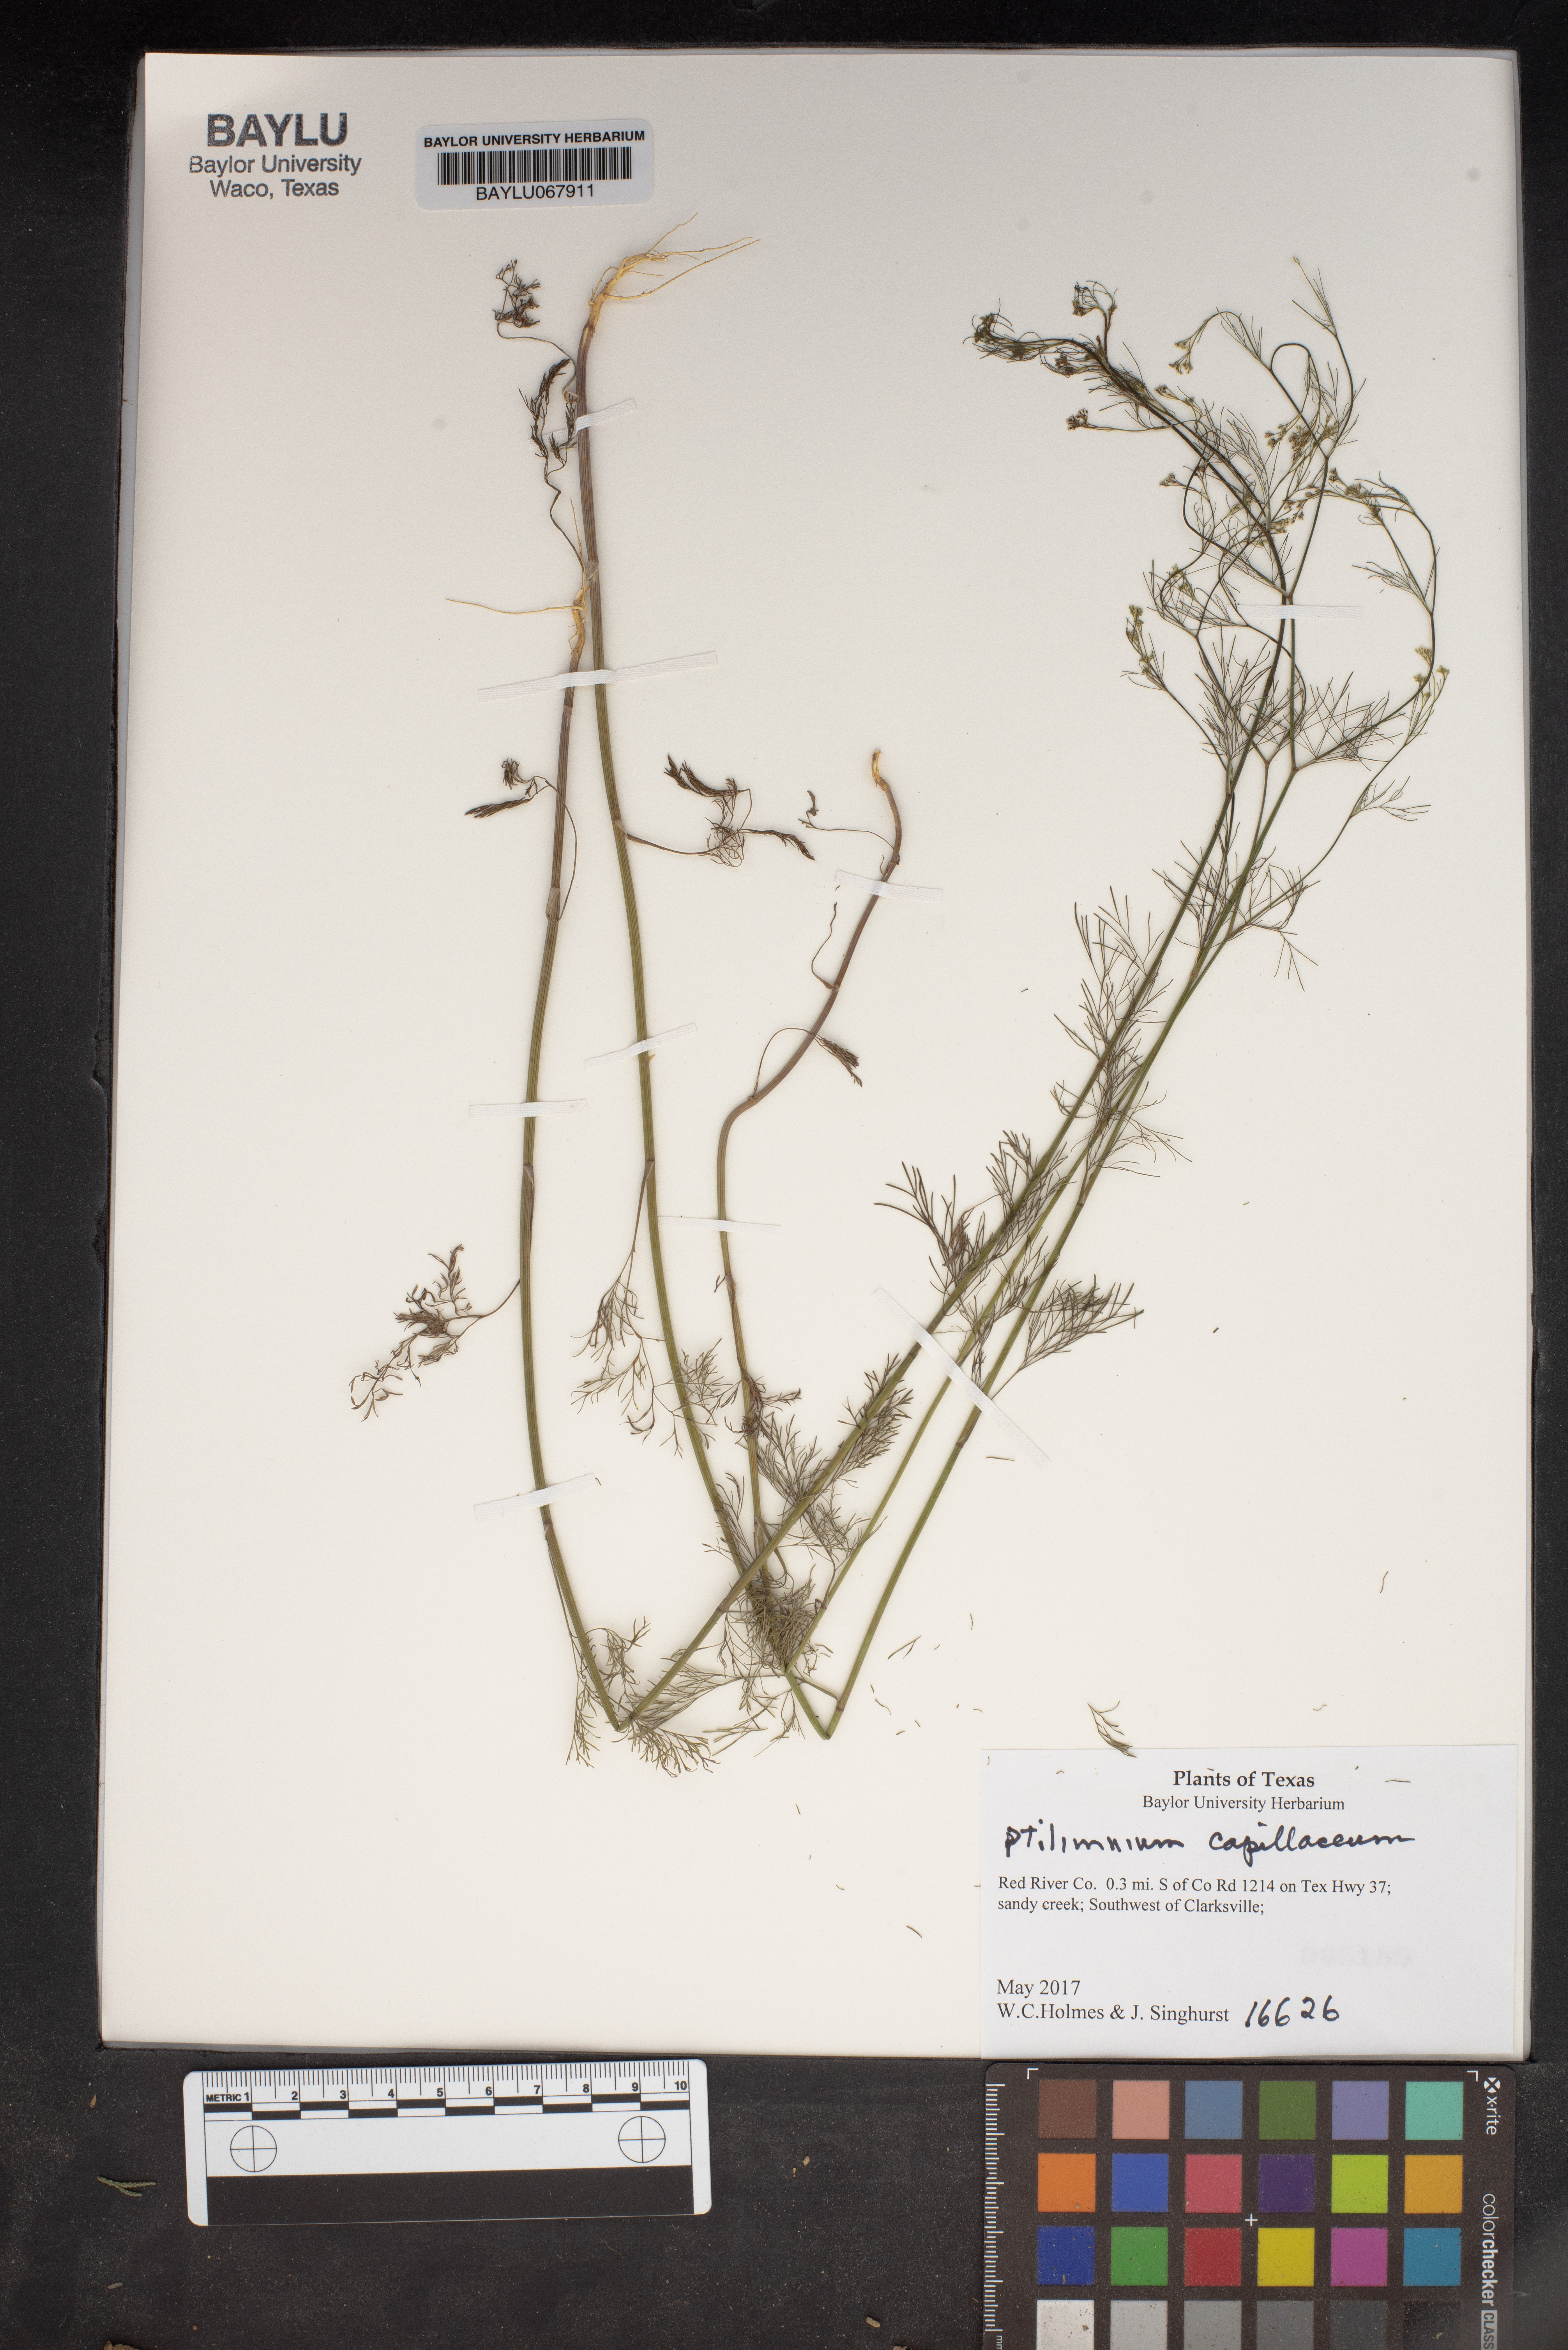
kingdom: Plantae
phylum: Tracheophyta
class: Magnoliopsida
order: Apiales
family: Apiaceae
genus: Ptilimnium
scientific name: Ptilimnium capillaceum
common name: Herbwilliam
